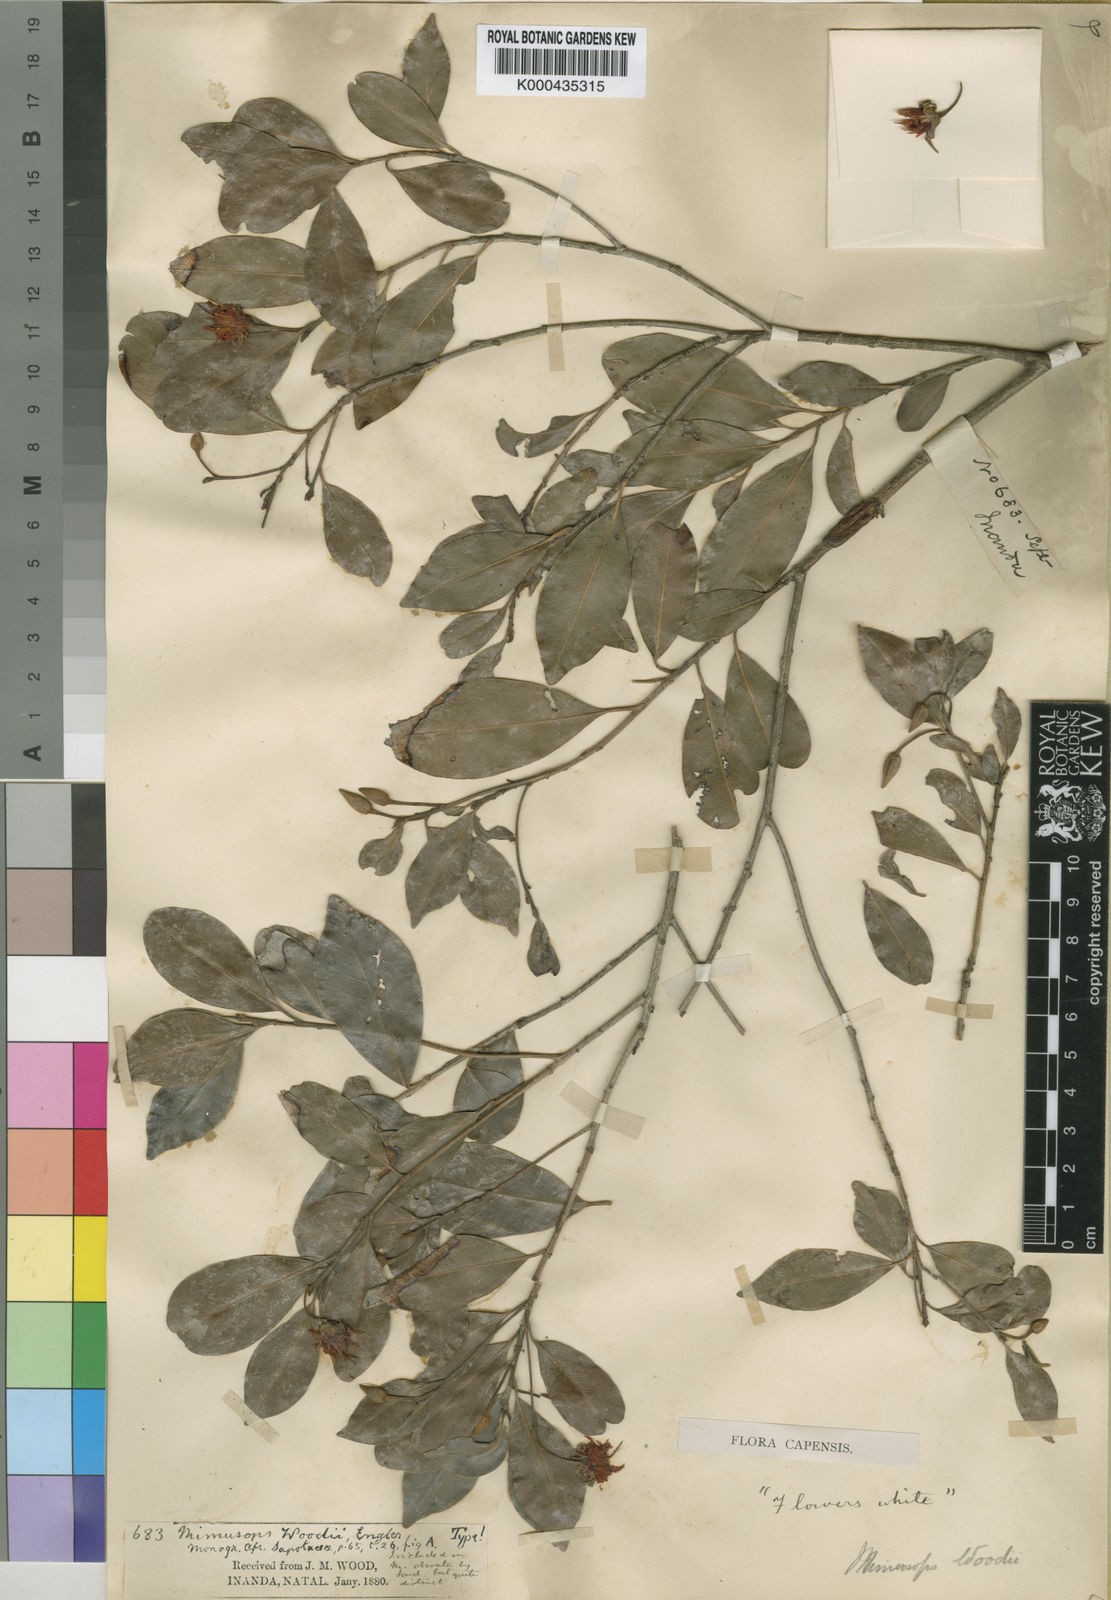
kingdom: Plantae
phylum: Tracheophyta
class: Magnoliopsida
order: Ericales
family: Sapotaceae
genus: Mimusops
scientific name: Mimusops obovata
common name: Red milkwood
